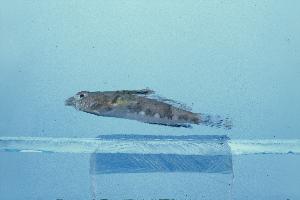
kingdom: Animalia
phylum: Chordata
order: Perciformes
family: Callionymidae
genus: Callionymus
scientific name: Callionymus marleyi
